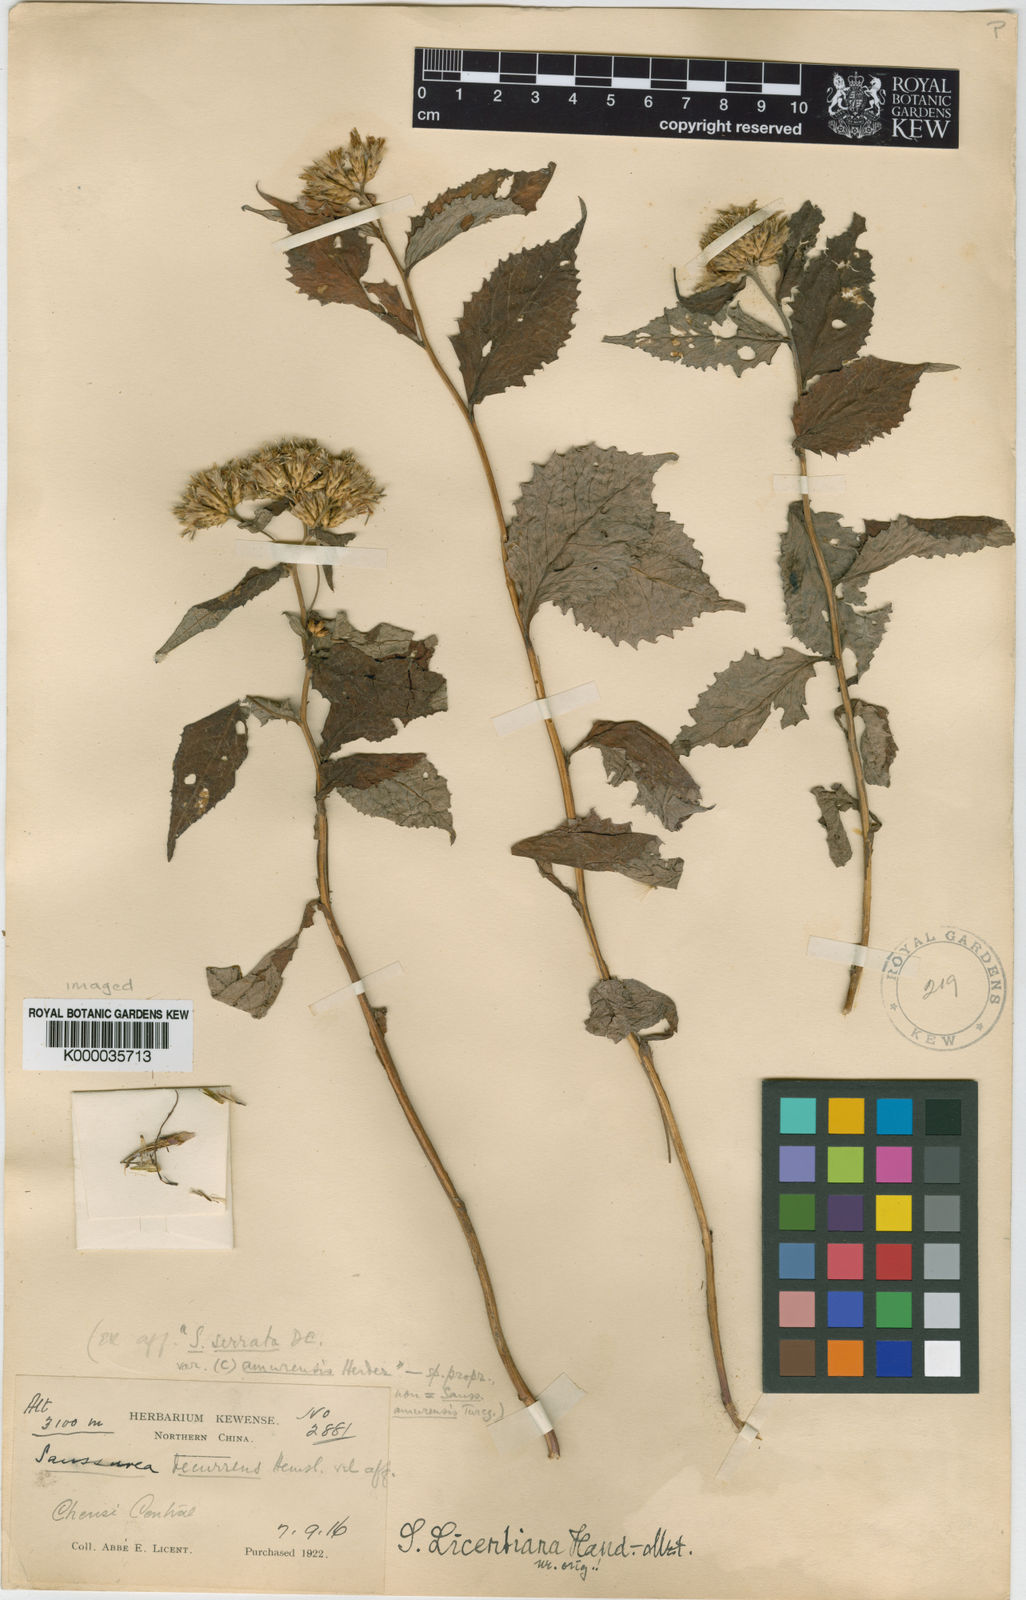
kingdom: Plantae
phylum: Tracheophyta
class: Magnoliopsida
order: Asterales
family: Asteraceae
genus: Saussurea
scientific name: Saussurea licentiana
